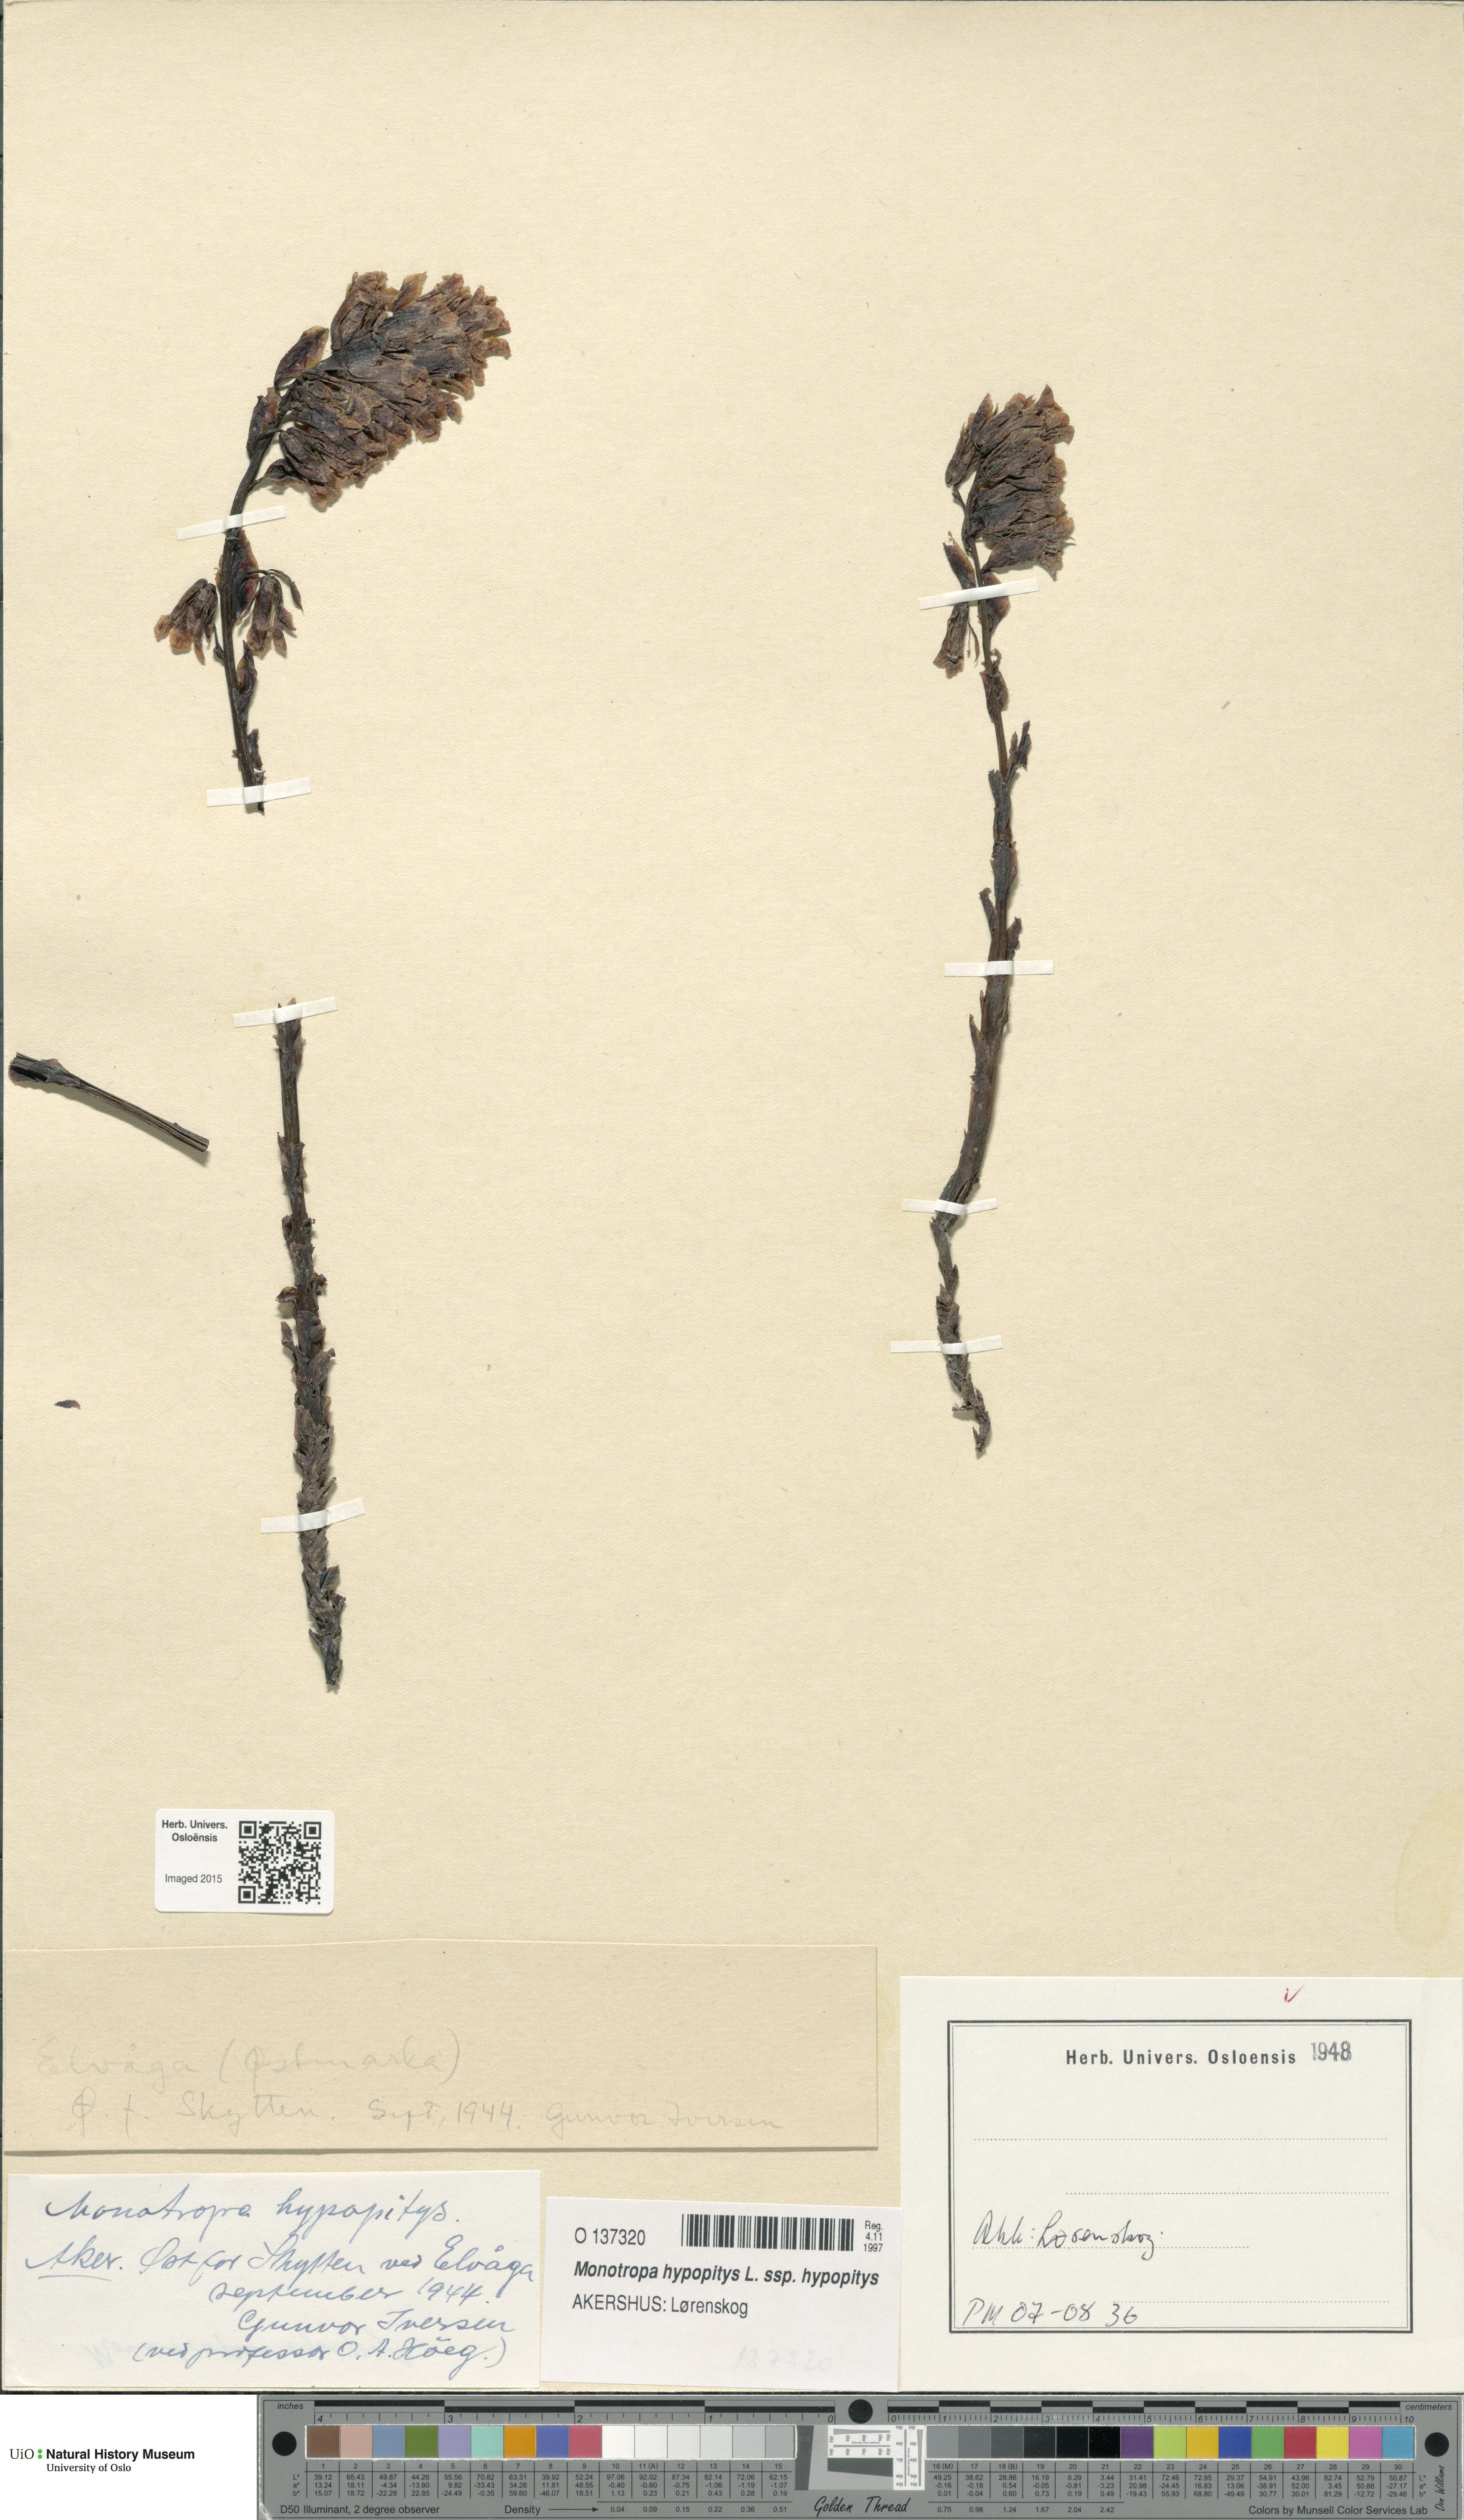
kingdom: Plantae
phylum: Tracheophyta
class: Magnoliopsida
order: Ericales
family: Ericaceae
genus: Hypopitys
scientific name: Hypopitys monotropa
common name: Yellow bird's-nest
